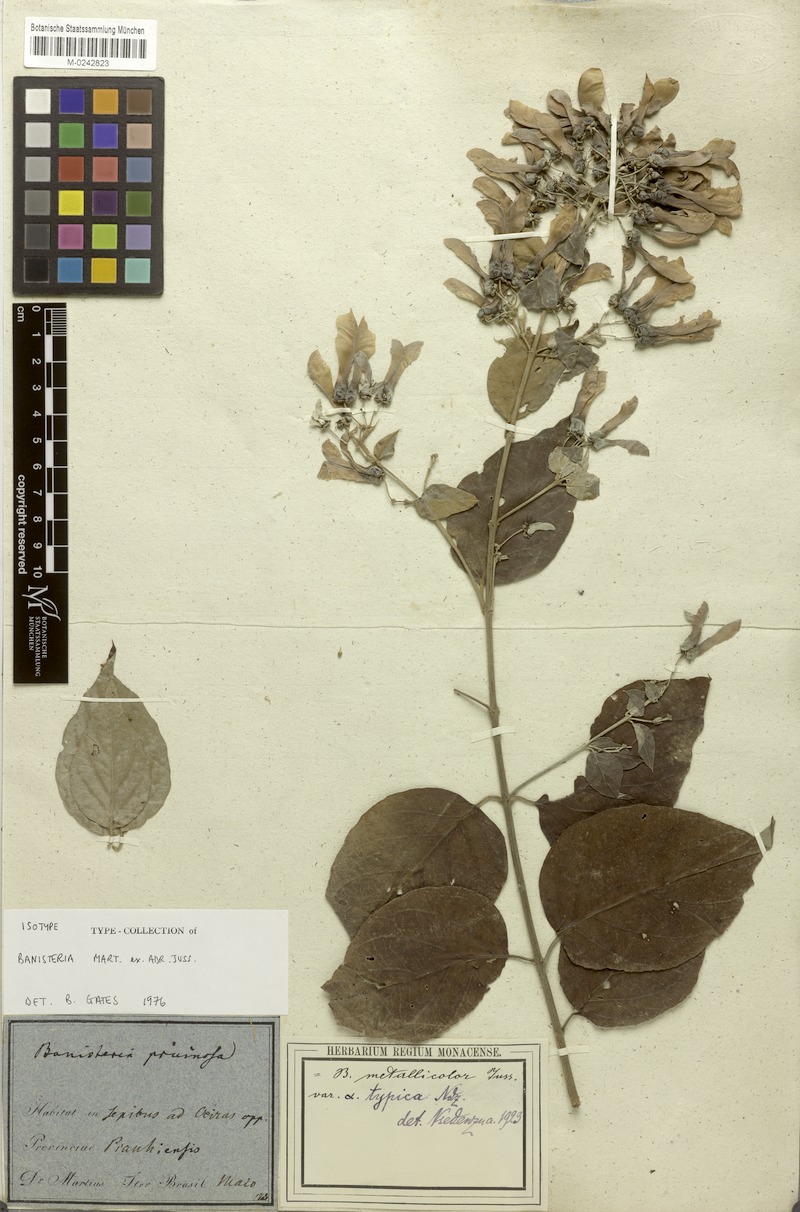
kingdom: Plantae
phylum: Tracheophyta
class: Magnoliopsida
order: Malpighiales
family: Malpighiaceae
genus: Banisteriopsis
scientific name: Banisteriopsis muricata
